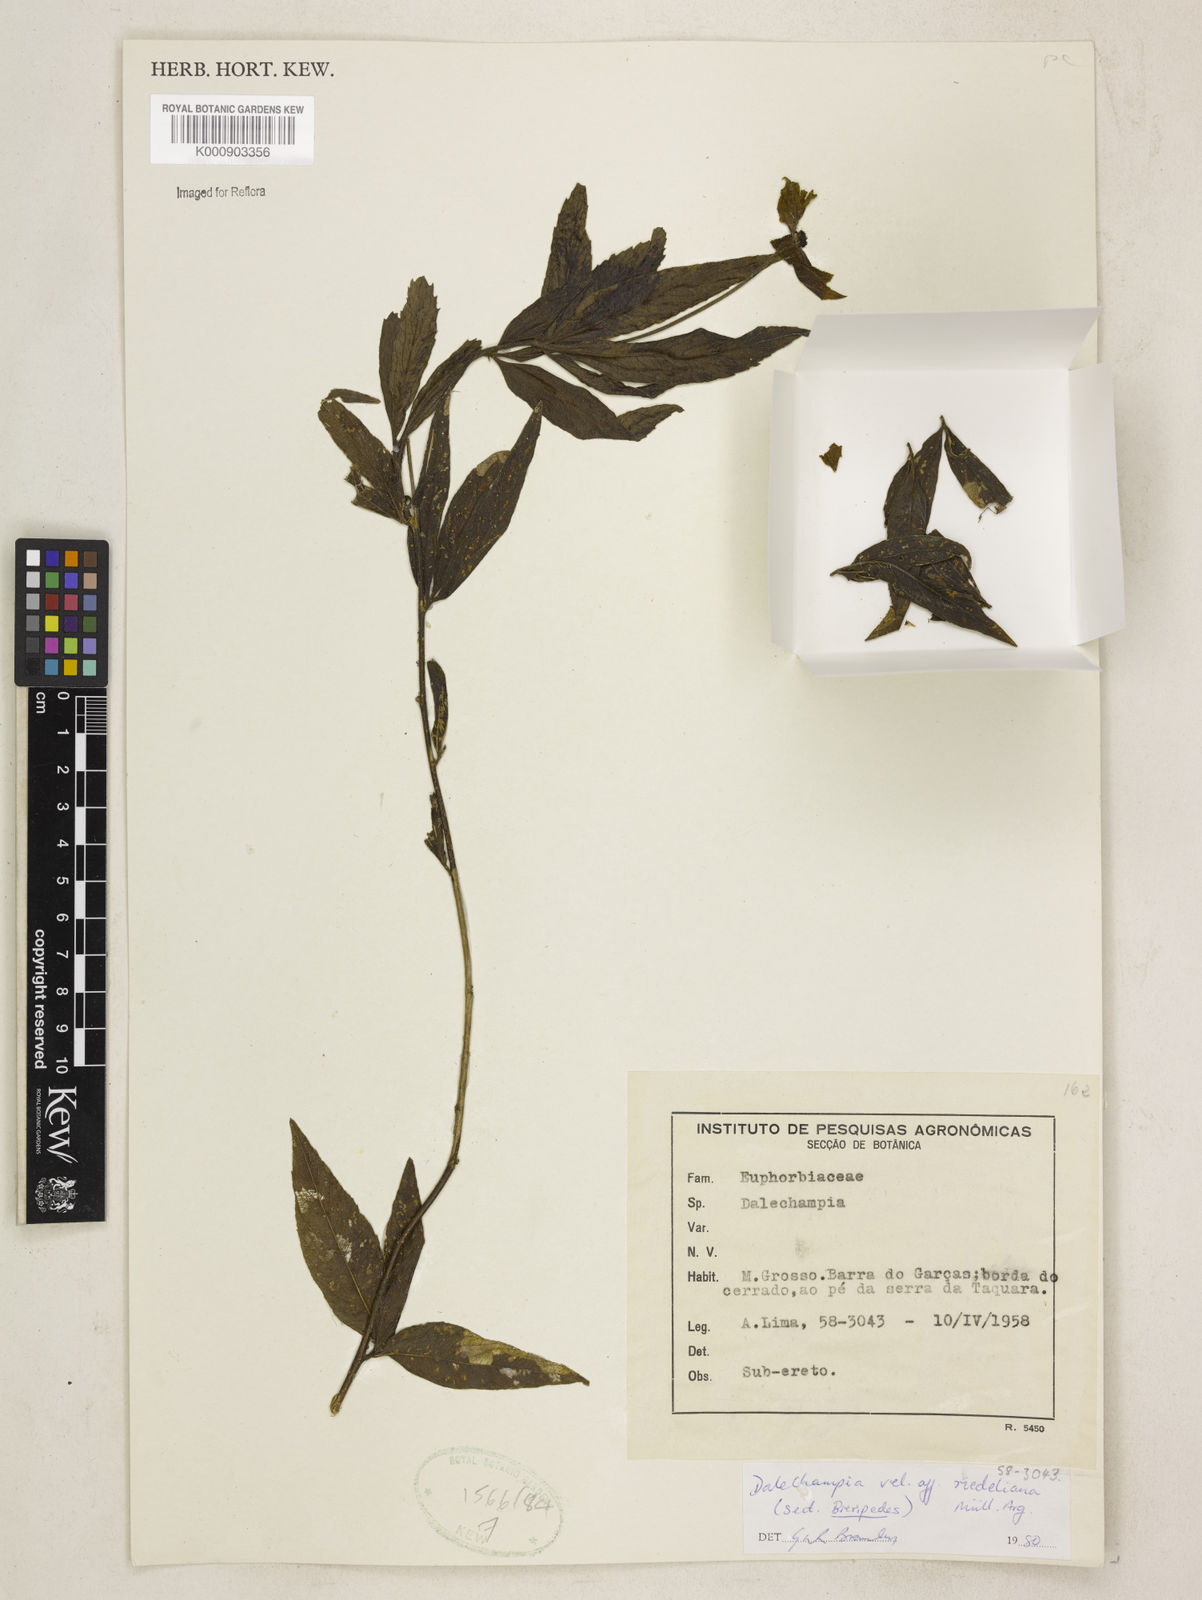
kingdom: Plantae
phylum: Tracheophyta
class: Magnoliopsida
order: Malpighiales
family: Euphorbiaceae
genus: Dalechampia
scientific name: Dalechampia
